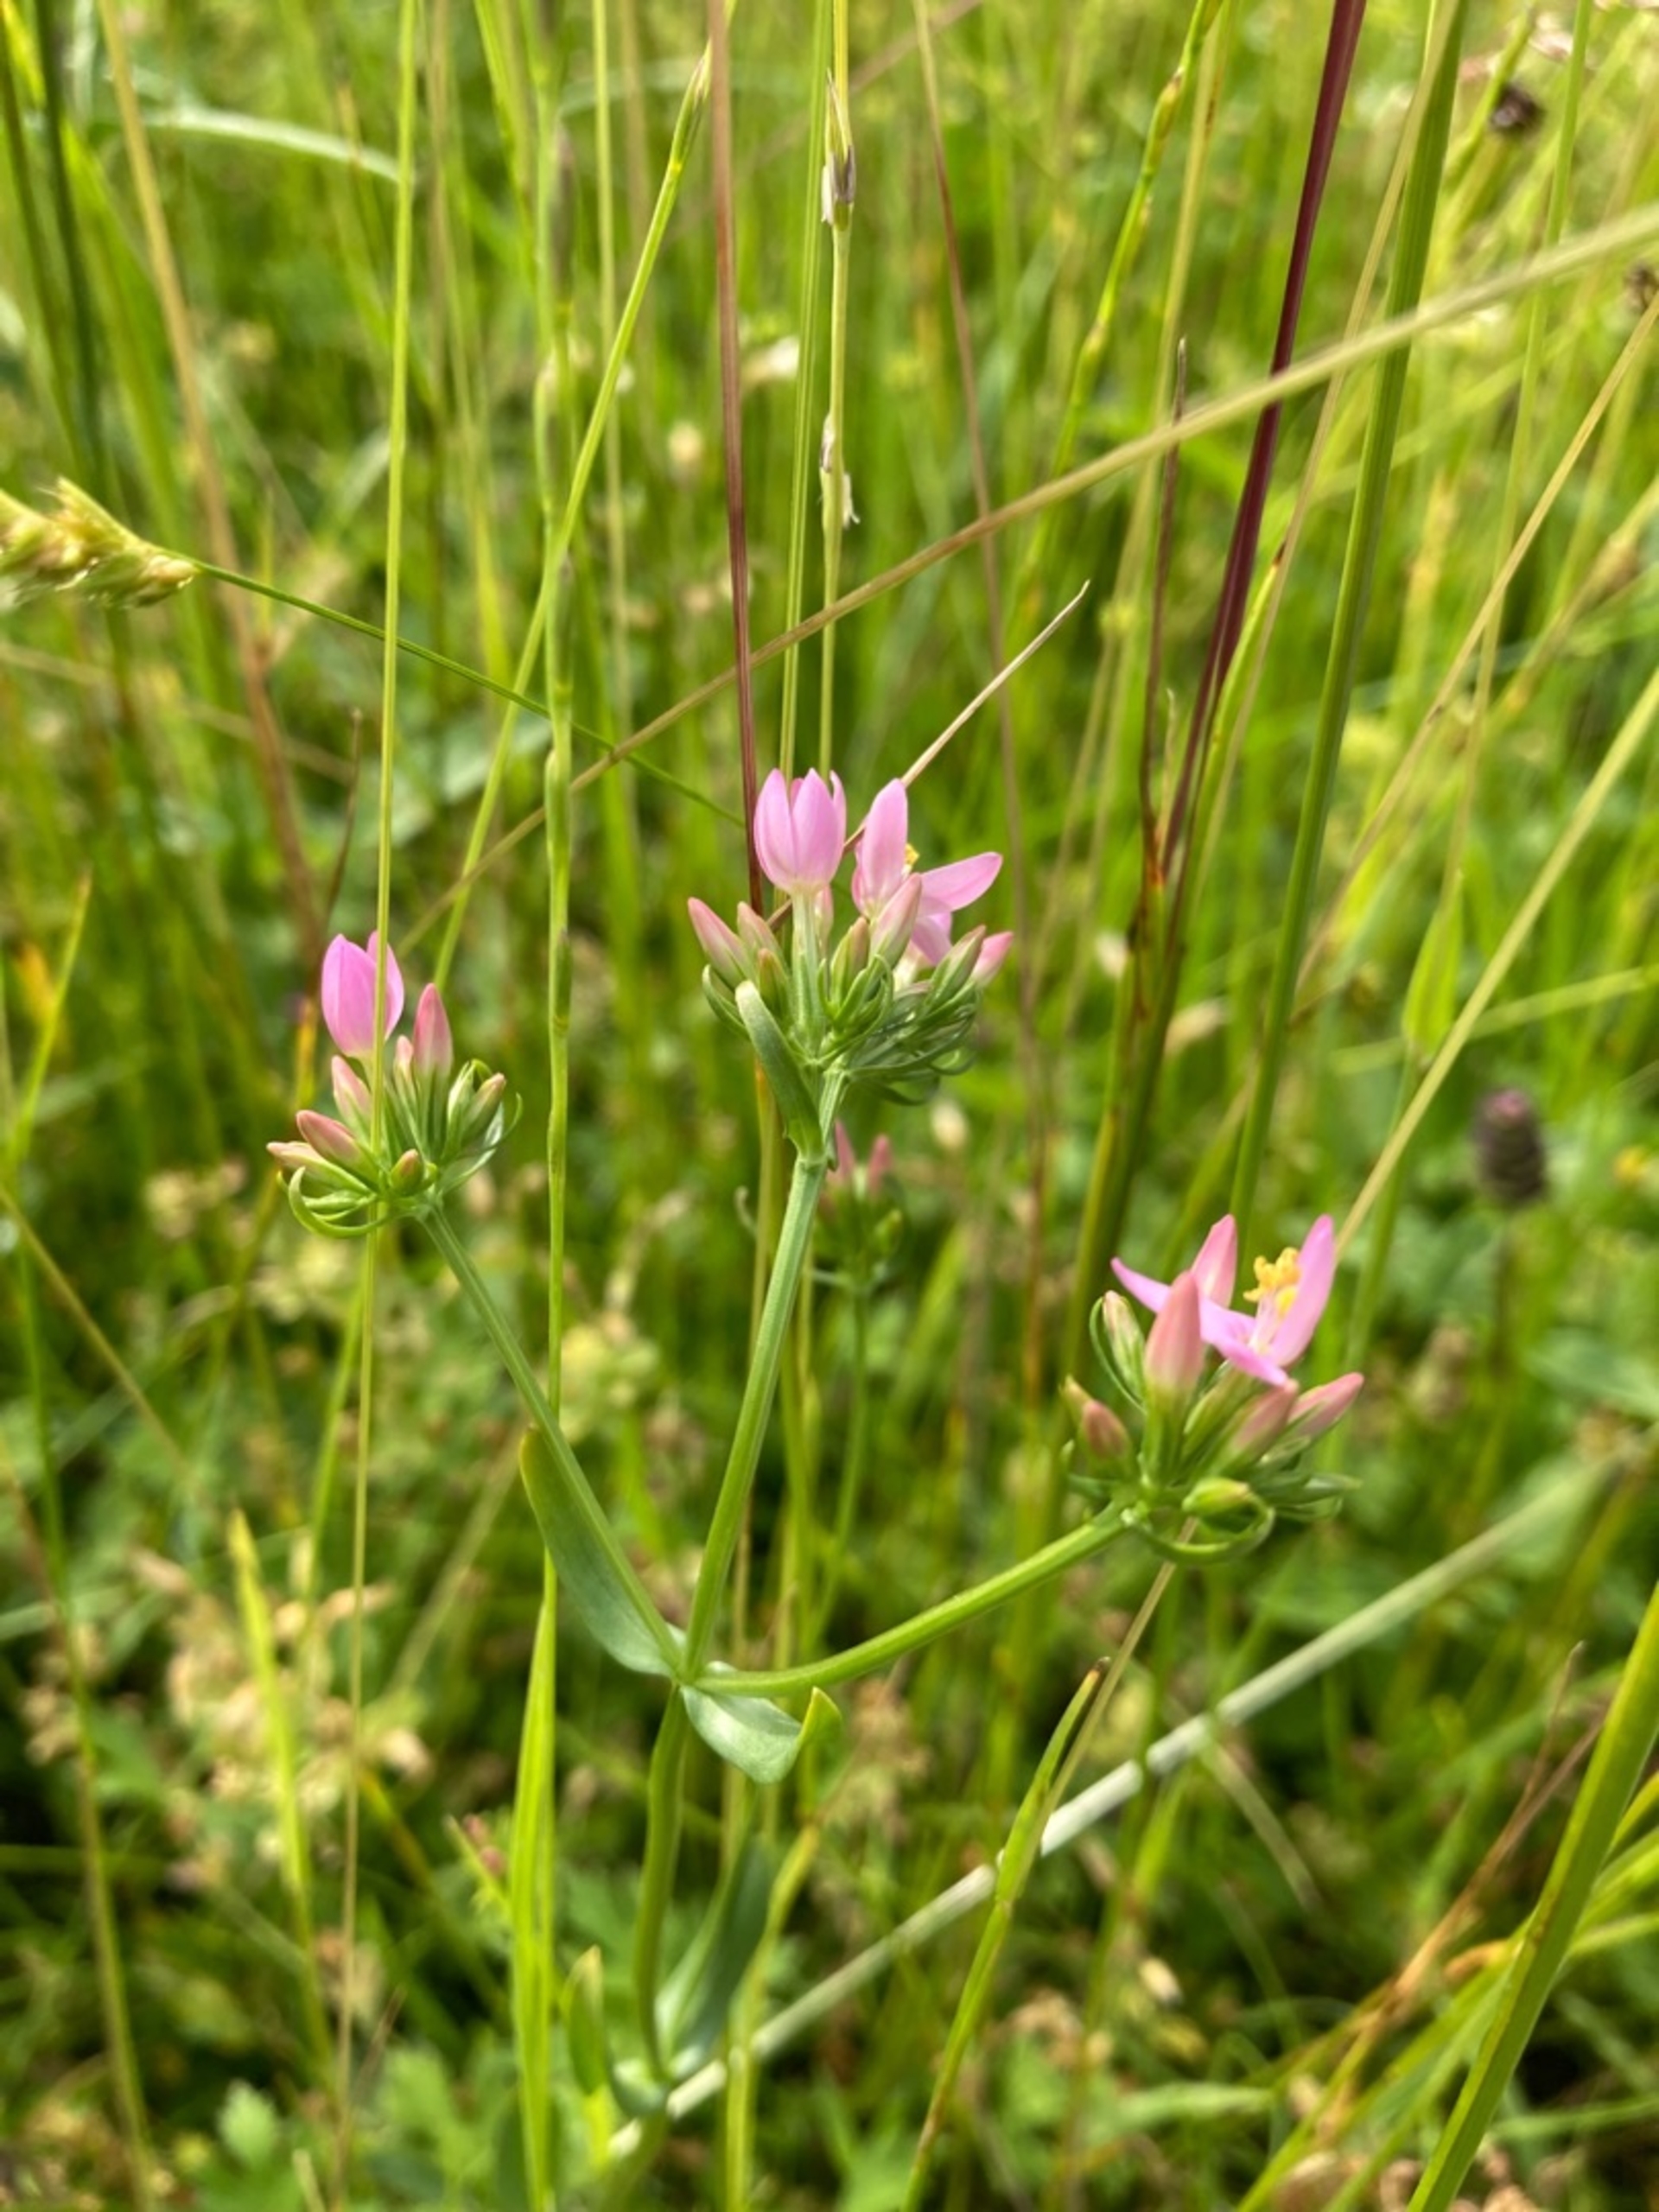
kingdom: Plantae
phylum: Tracheophyta
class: Magnoliopsida
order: Gentianales
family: Gentianaceae
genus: Centaurium
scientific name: Centaurium erythraea
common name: Mark-tusindgylden
